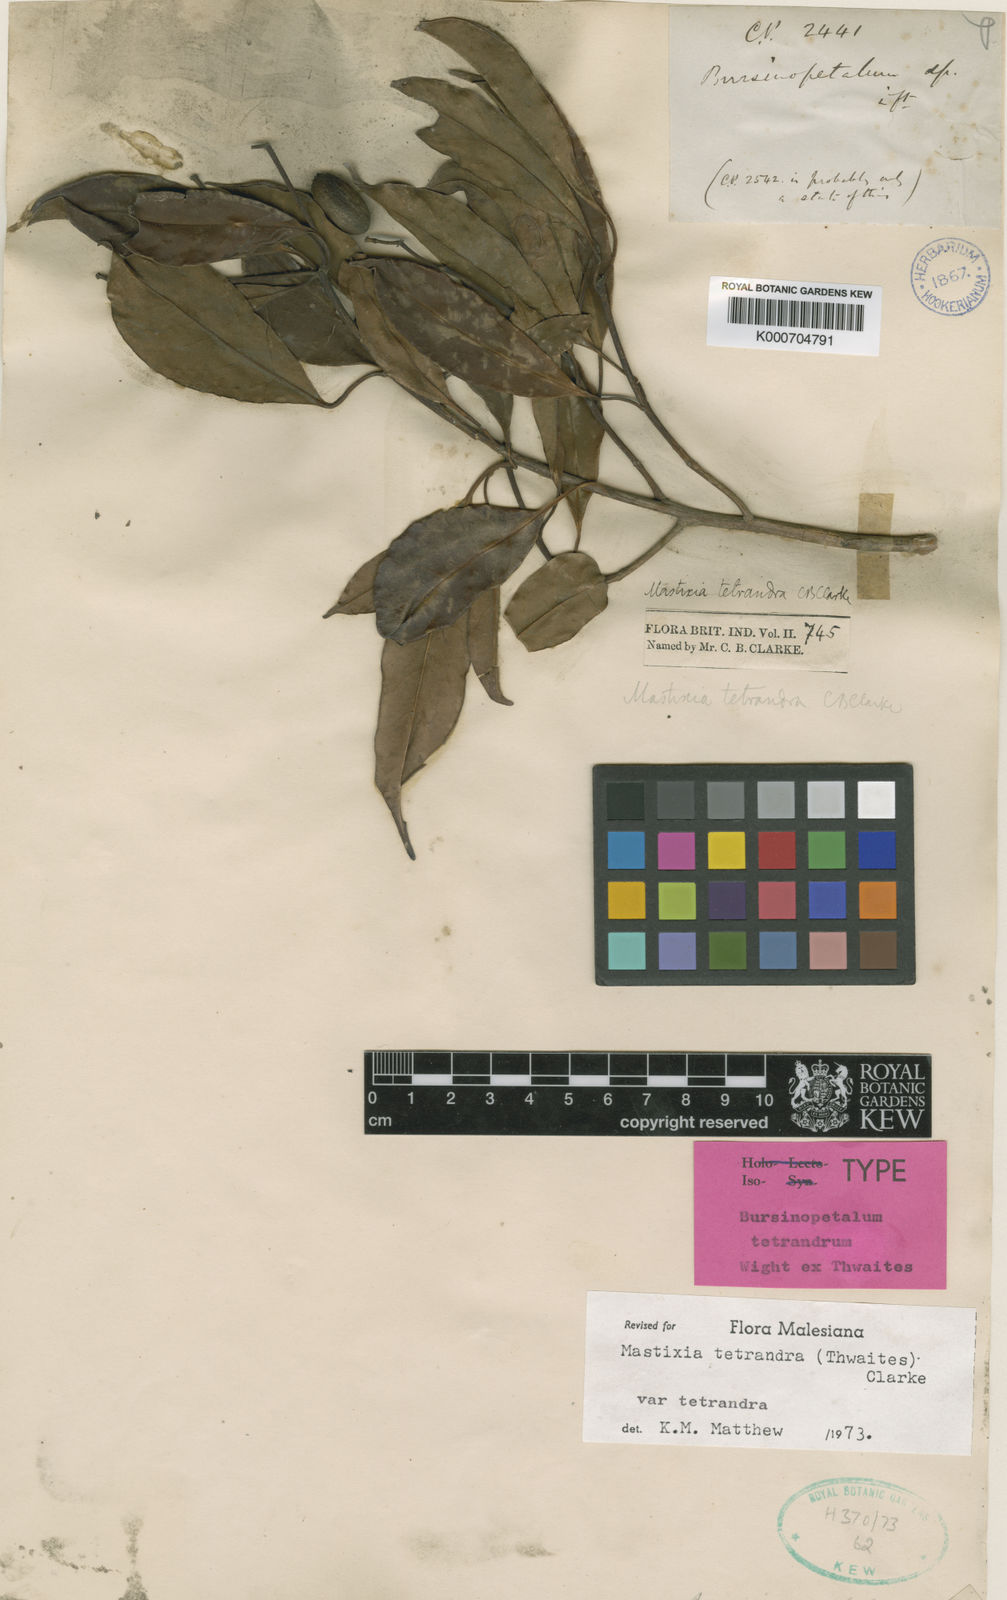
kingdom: Plantae
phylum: Tracheophyta
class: Magnoliopsida
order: Cornales
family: Nyssaceae
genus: Mastixia
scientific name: Mastixia tetrandra
